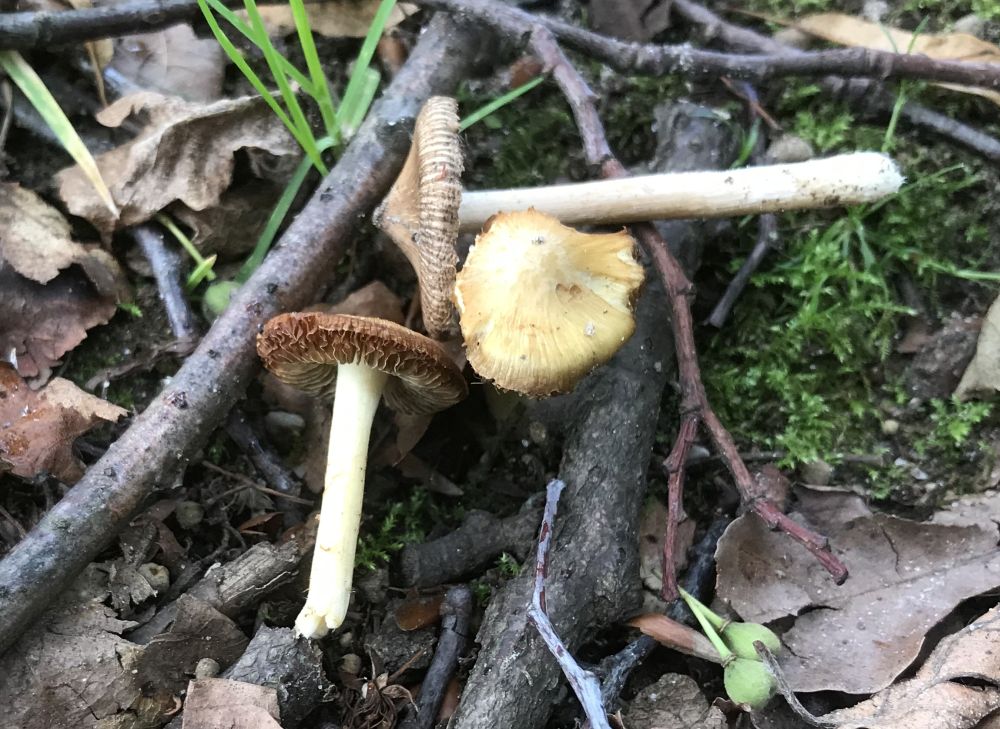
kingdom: Fungi
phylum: Basidiomycota
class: Agaricomycetes
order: Agaricales
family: Inocybaceae
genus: Inocybe
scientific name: Inocybe
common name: trævlhat
